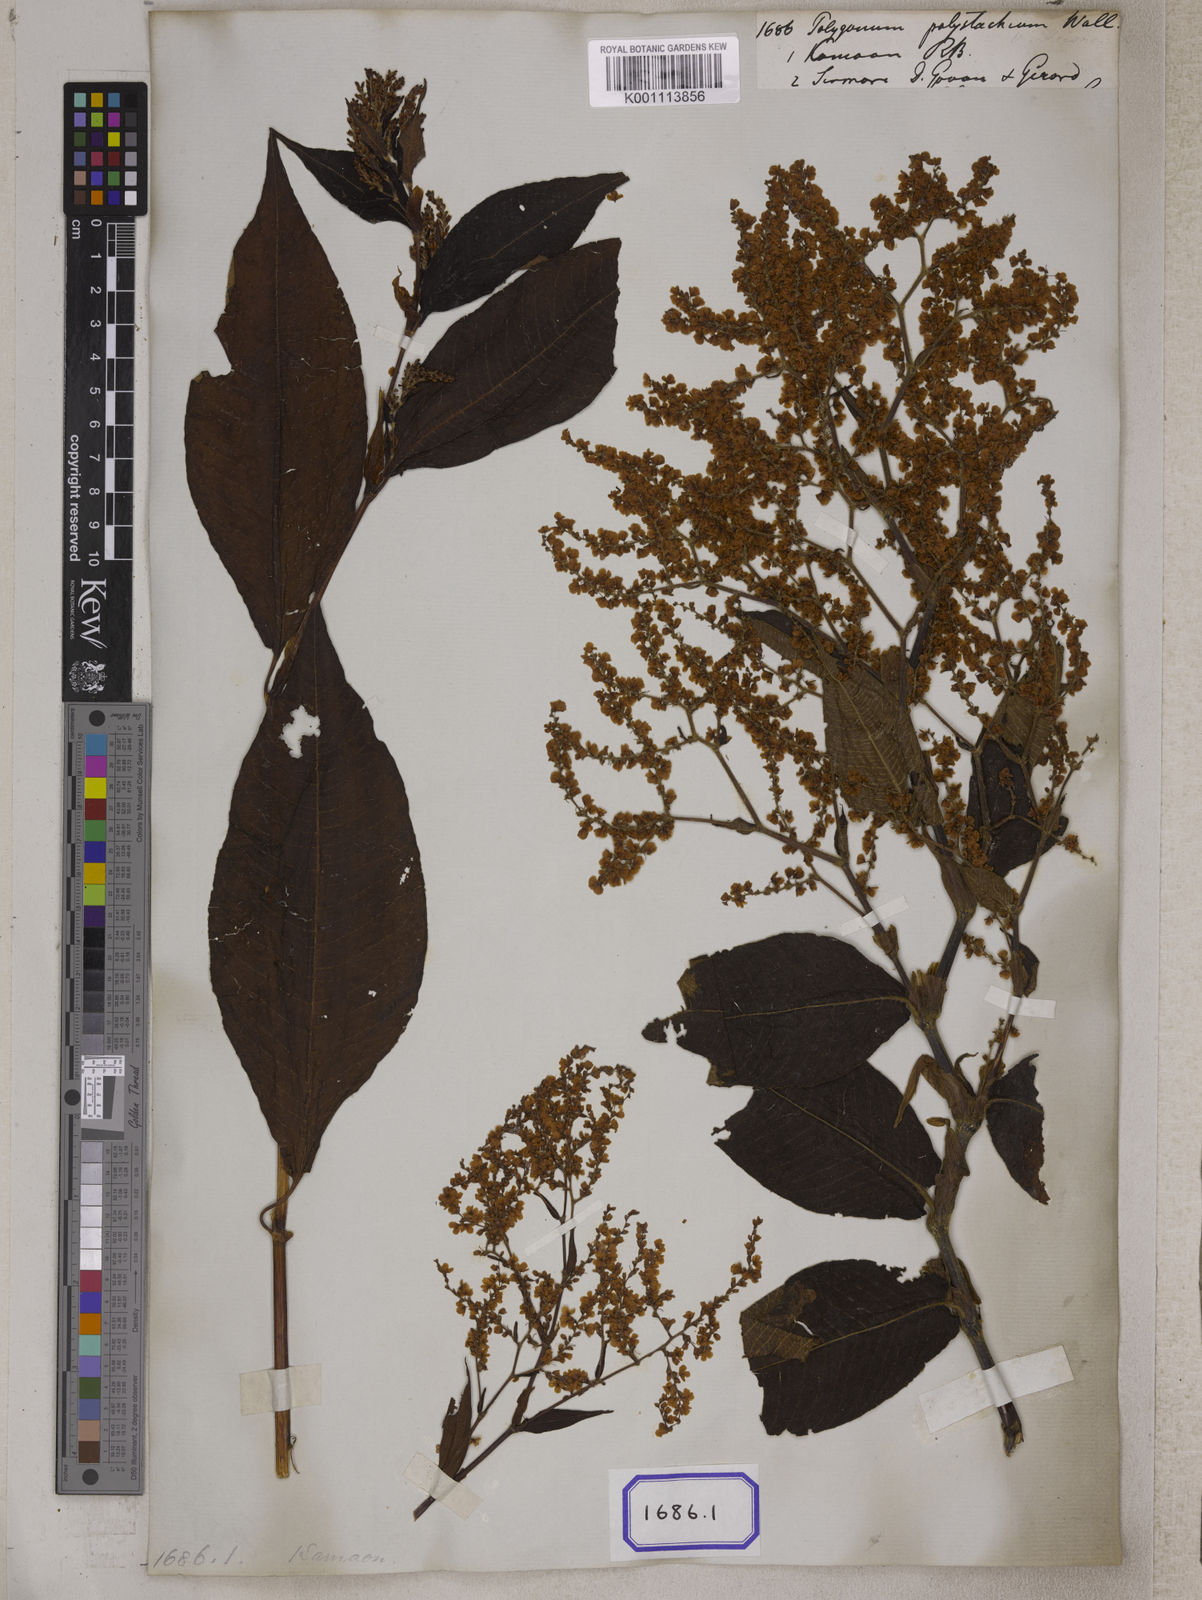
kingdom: Plantae
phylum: Tracheophyta
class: Magnoliopsida
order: Caryophyllales
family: Polygonaceae
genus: Polygonum
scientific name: Polygonum
